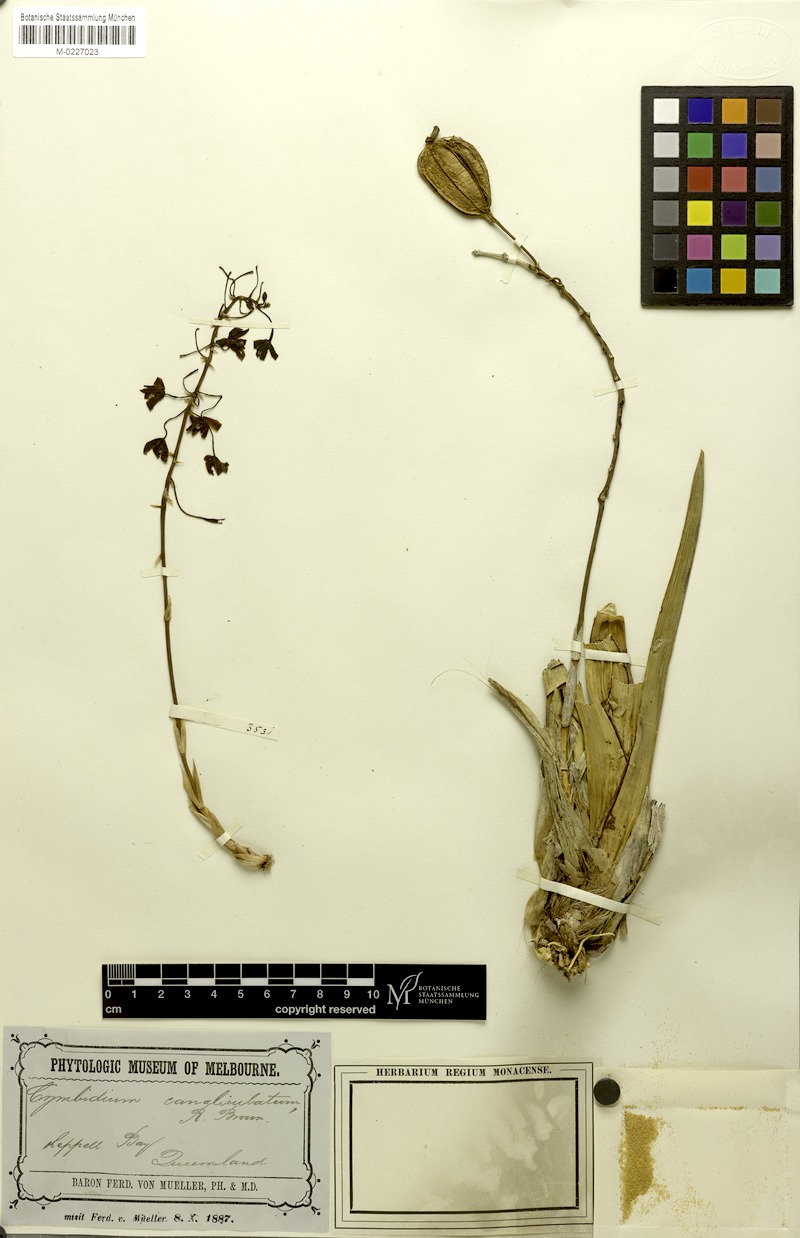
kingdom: Plantae
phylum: Tracheophyta
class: Liliopsida
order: Asparagales
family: Orchidaceae
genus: Cymbidium
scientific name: Cymbidium canaliculatum
